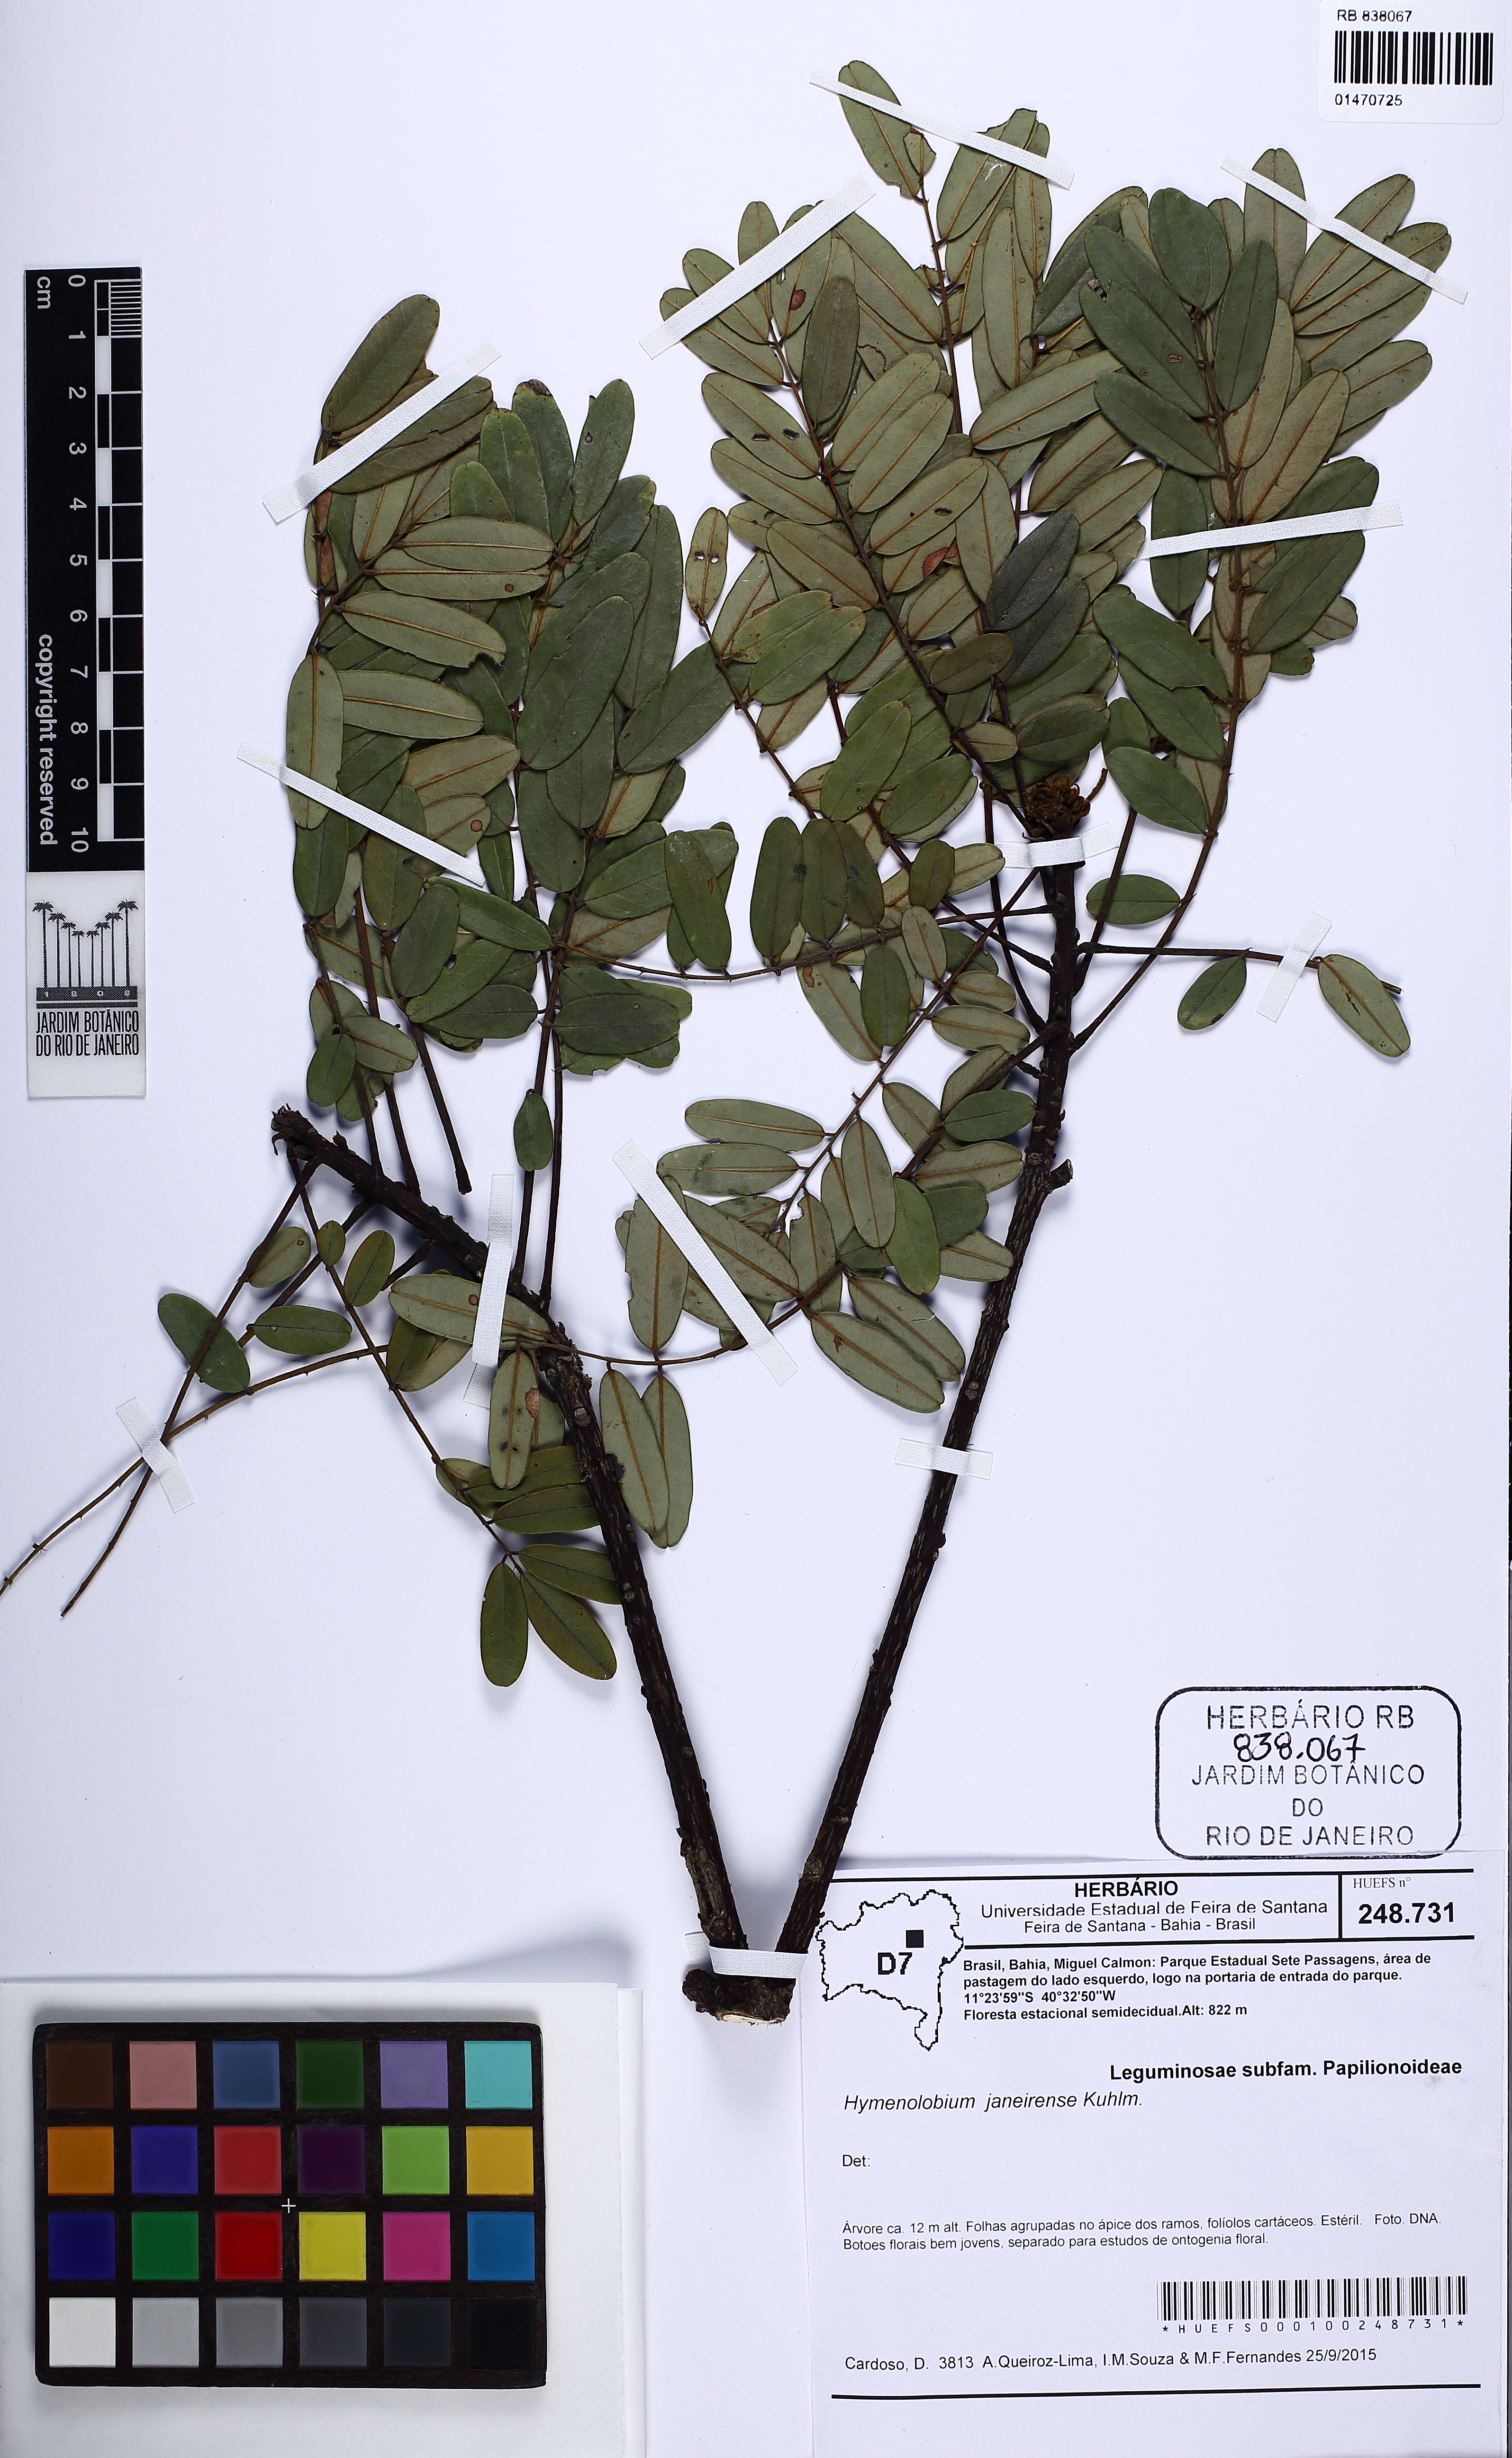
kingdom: Plantae
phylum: Tracheophyta
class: Magnoliopsida
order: Fabales
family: Fabaceae
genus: Hymenolobium
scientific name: Hymenolobium janeirense
